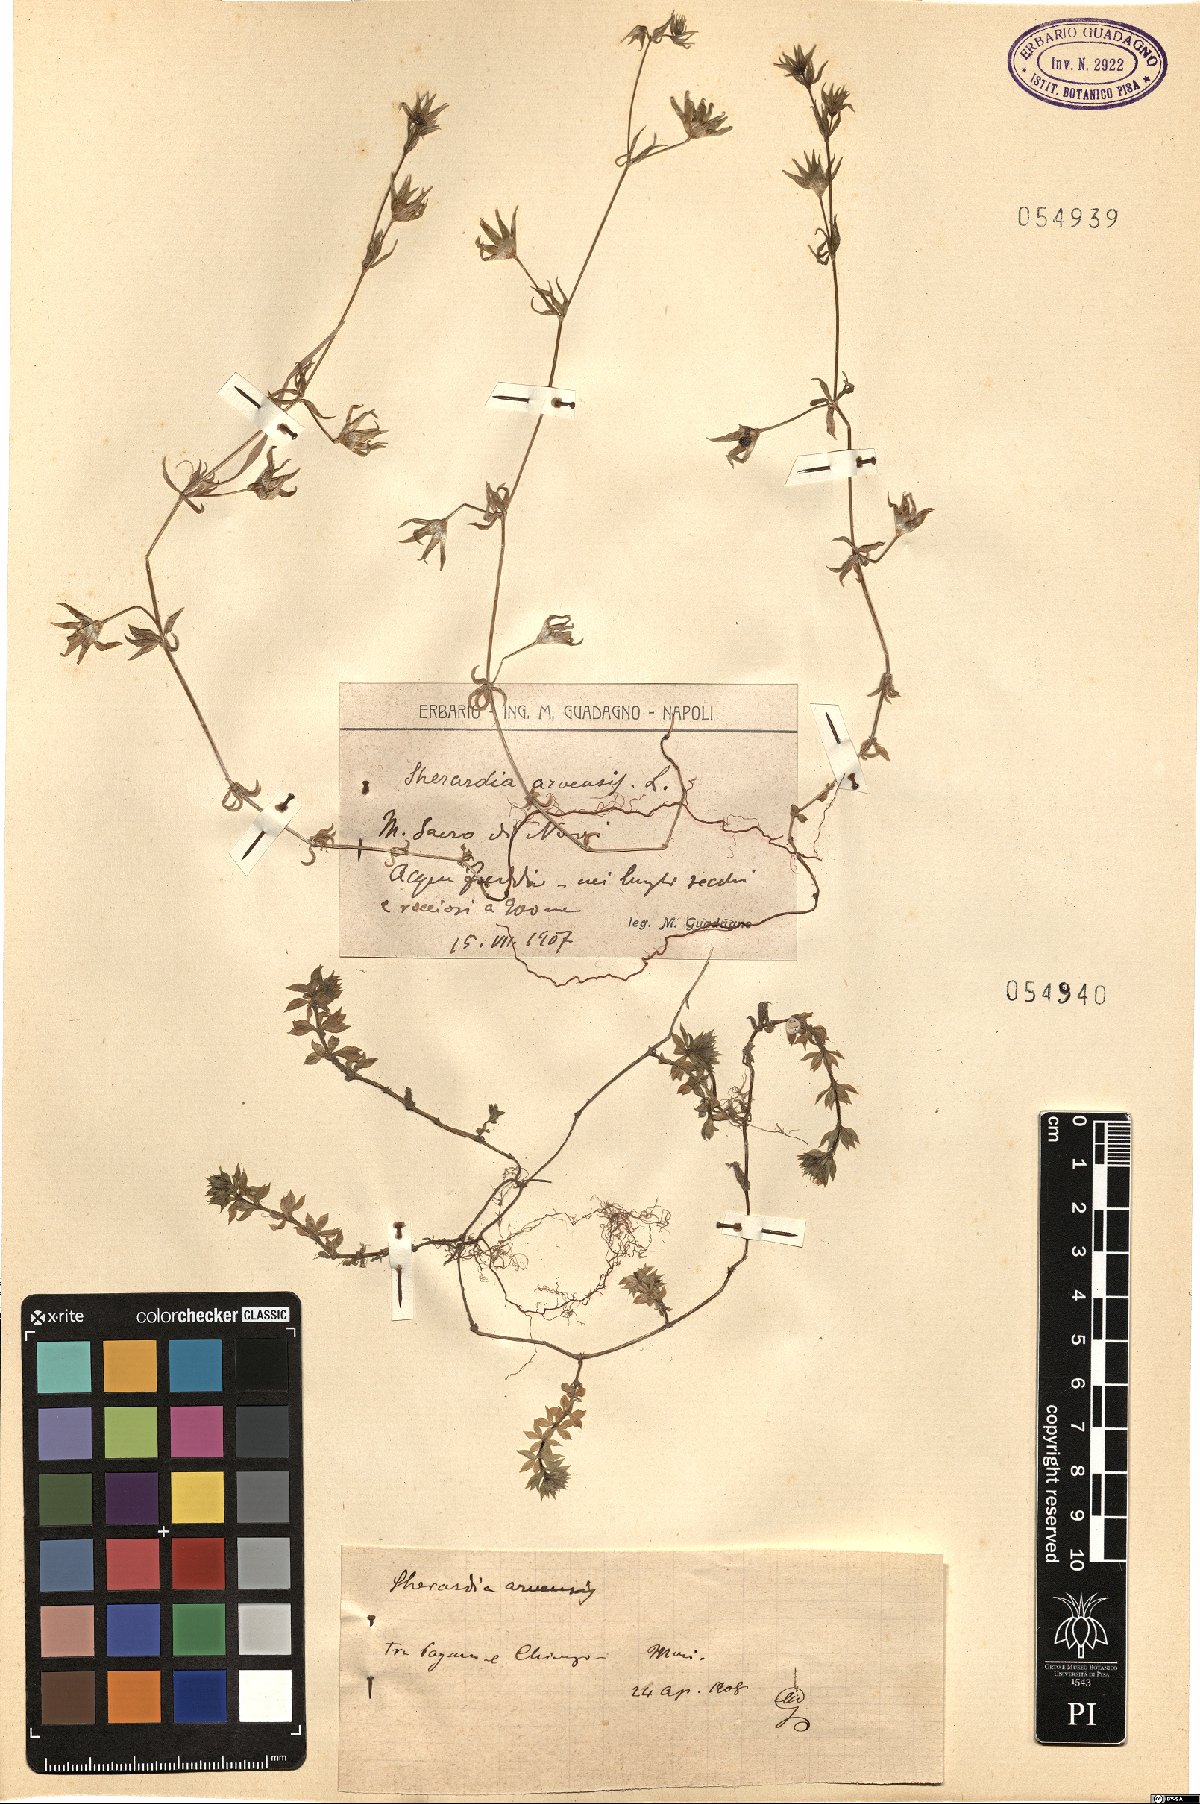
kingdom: Plantae
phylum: Tracheophyta
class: Magnoliopsida
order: Gentianales
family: Rubiaceae
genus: Sherardia
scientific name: Sherardia arvensis
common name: Field madder
